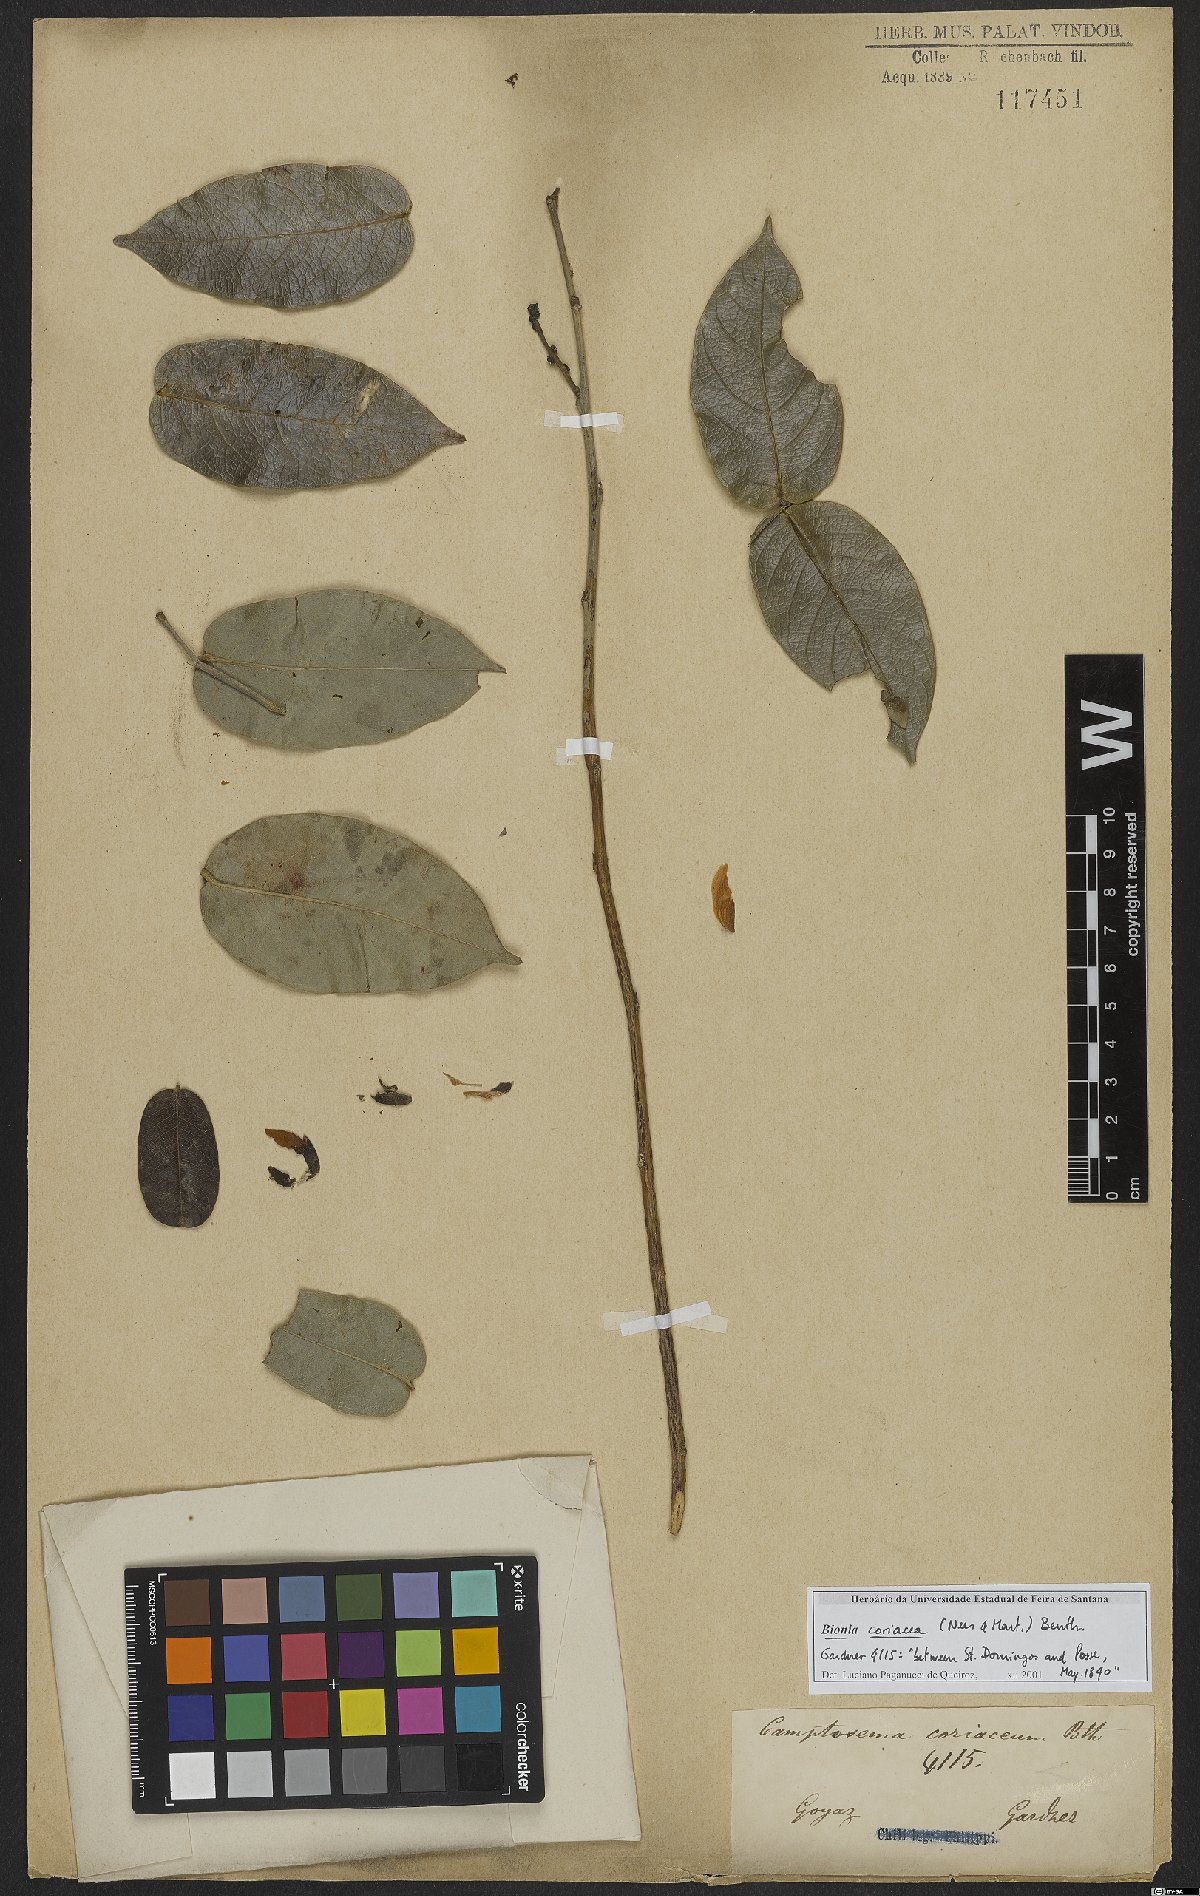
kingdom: Plantae
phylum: Tracheophyta
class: Magnoliopsida
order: Fabales
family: Fabaceae
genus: Camptosema
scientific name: Camptosema coriaceum
